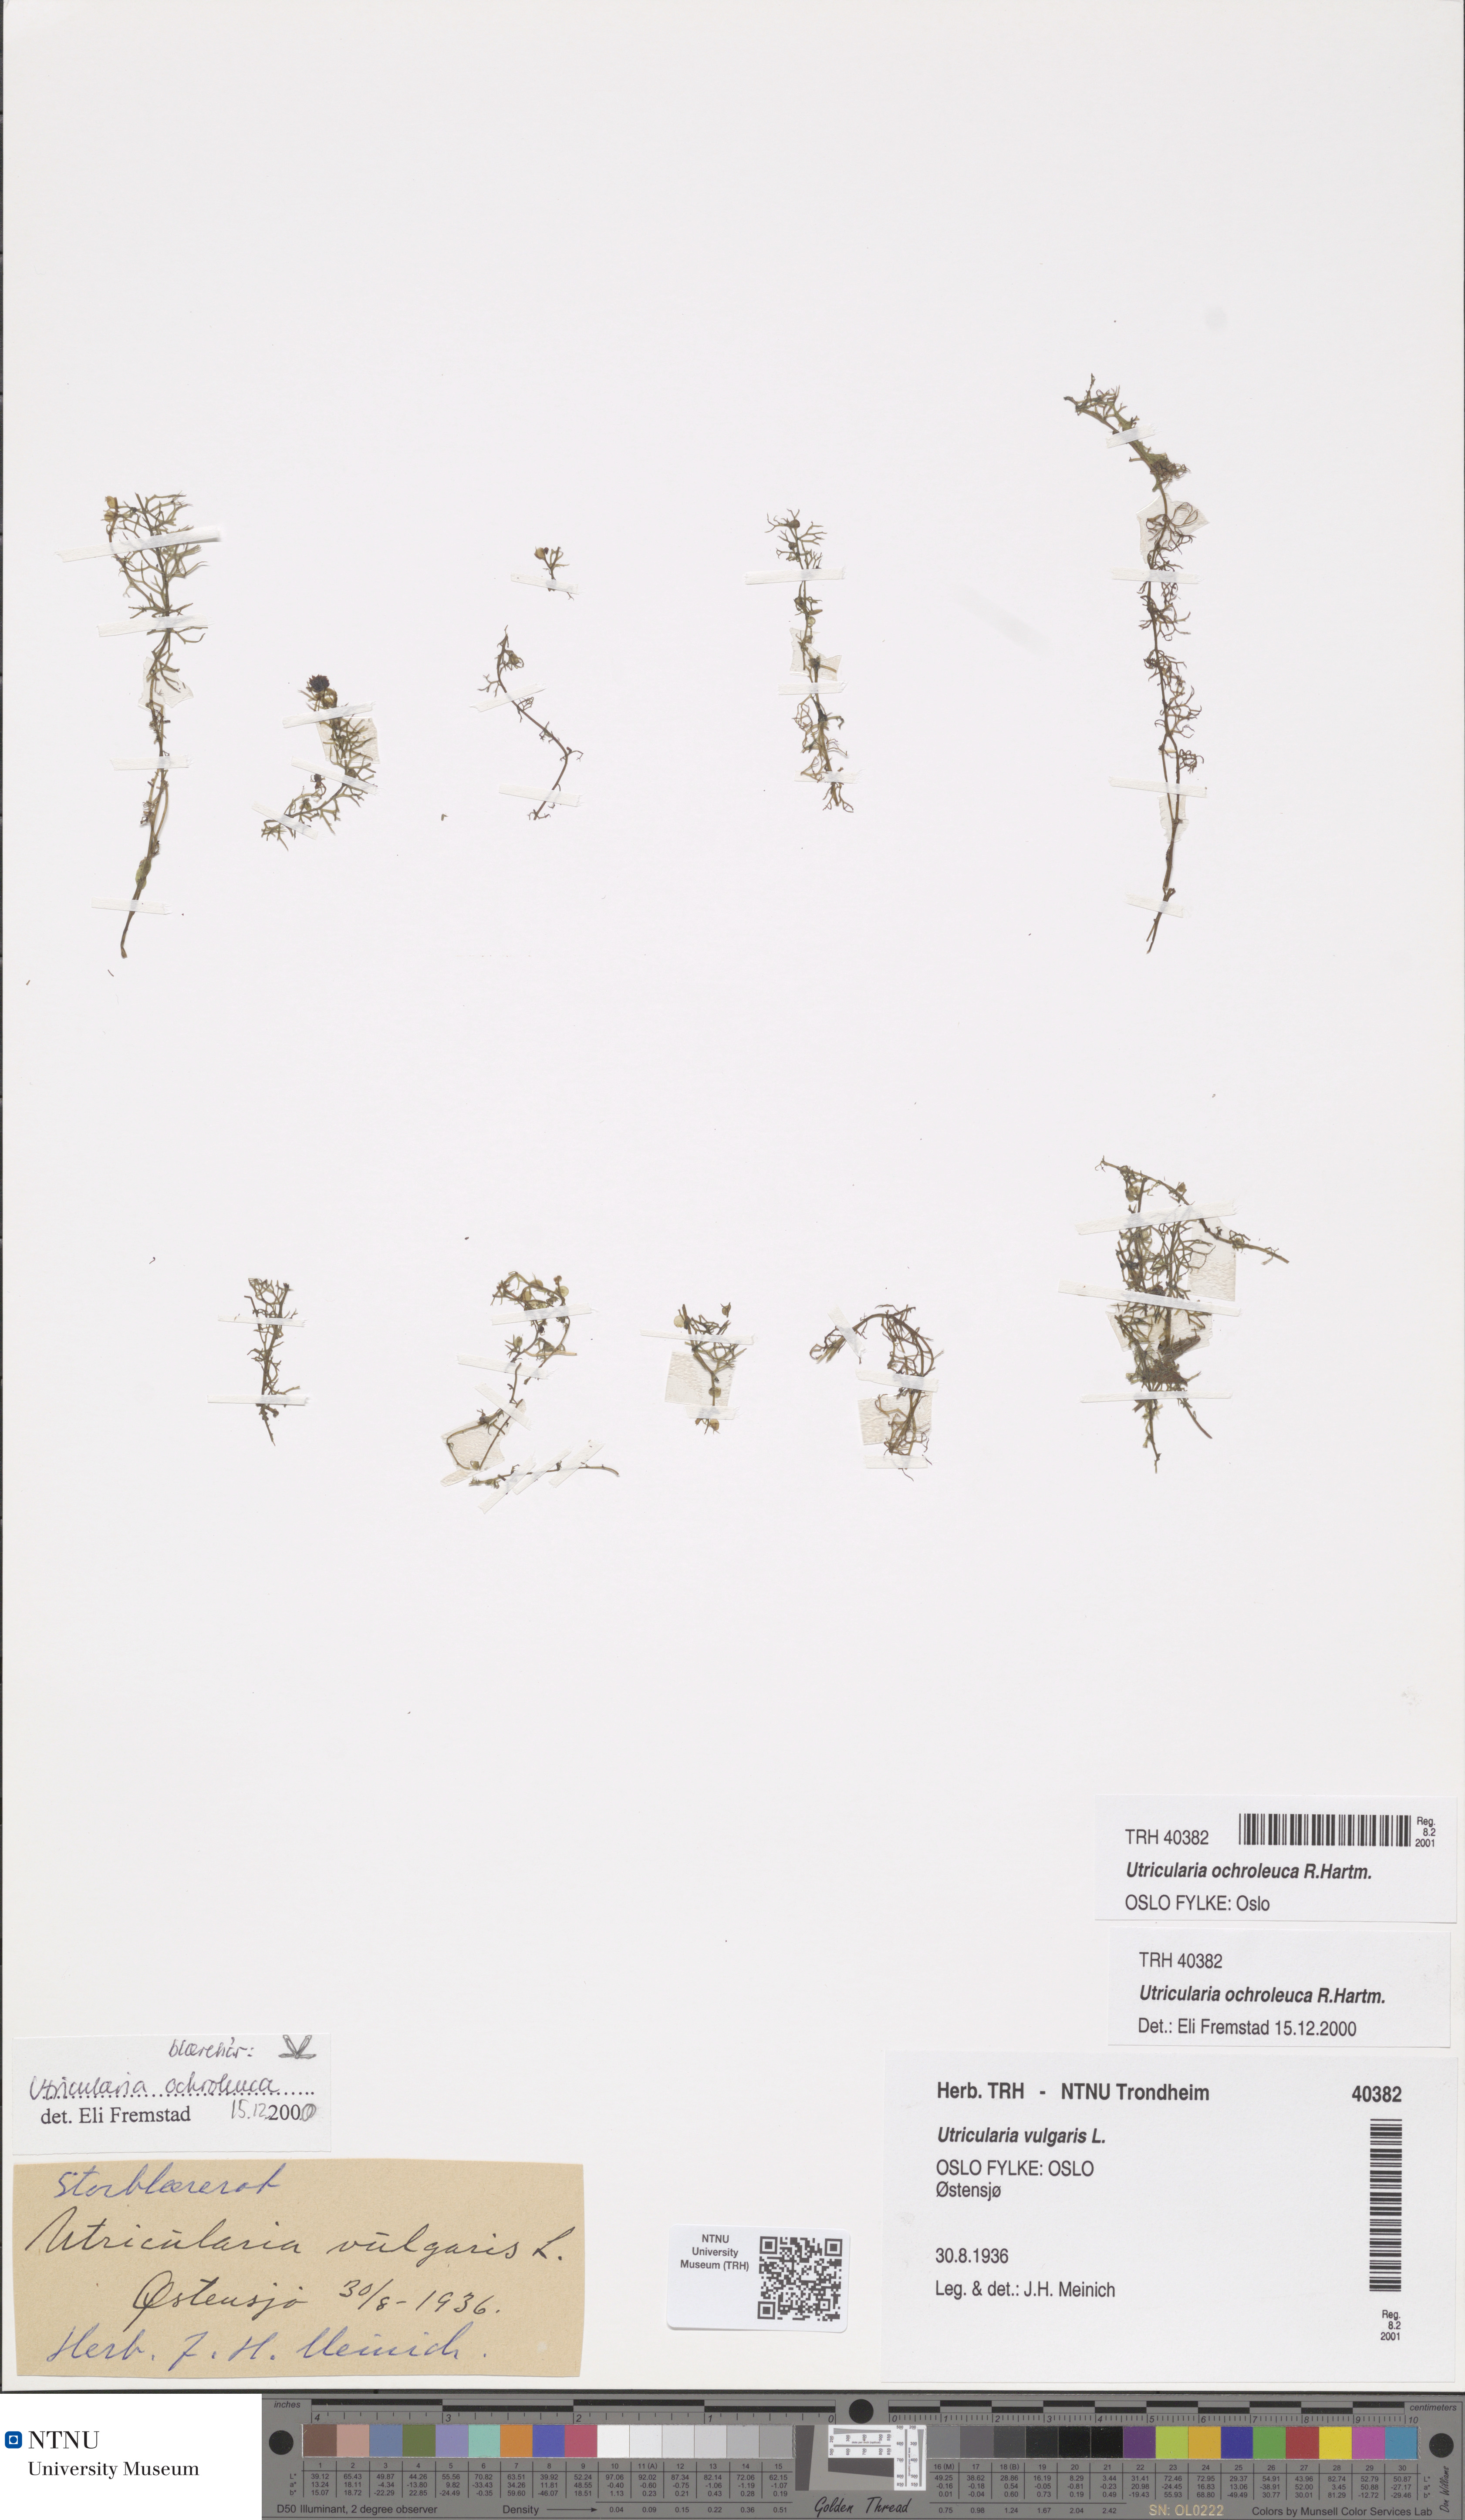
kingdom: Plantae
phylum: Tracheophyta
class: Magnoliopsida
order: Lamiales
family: Lentibulariaceae
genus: Utricularia
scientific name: Utricularia ochroleuca
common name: Pale bladderwort
